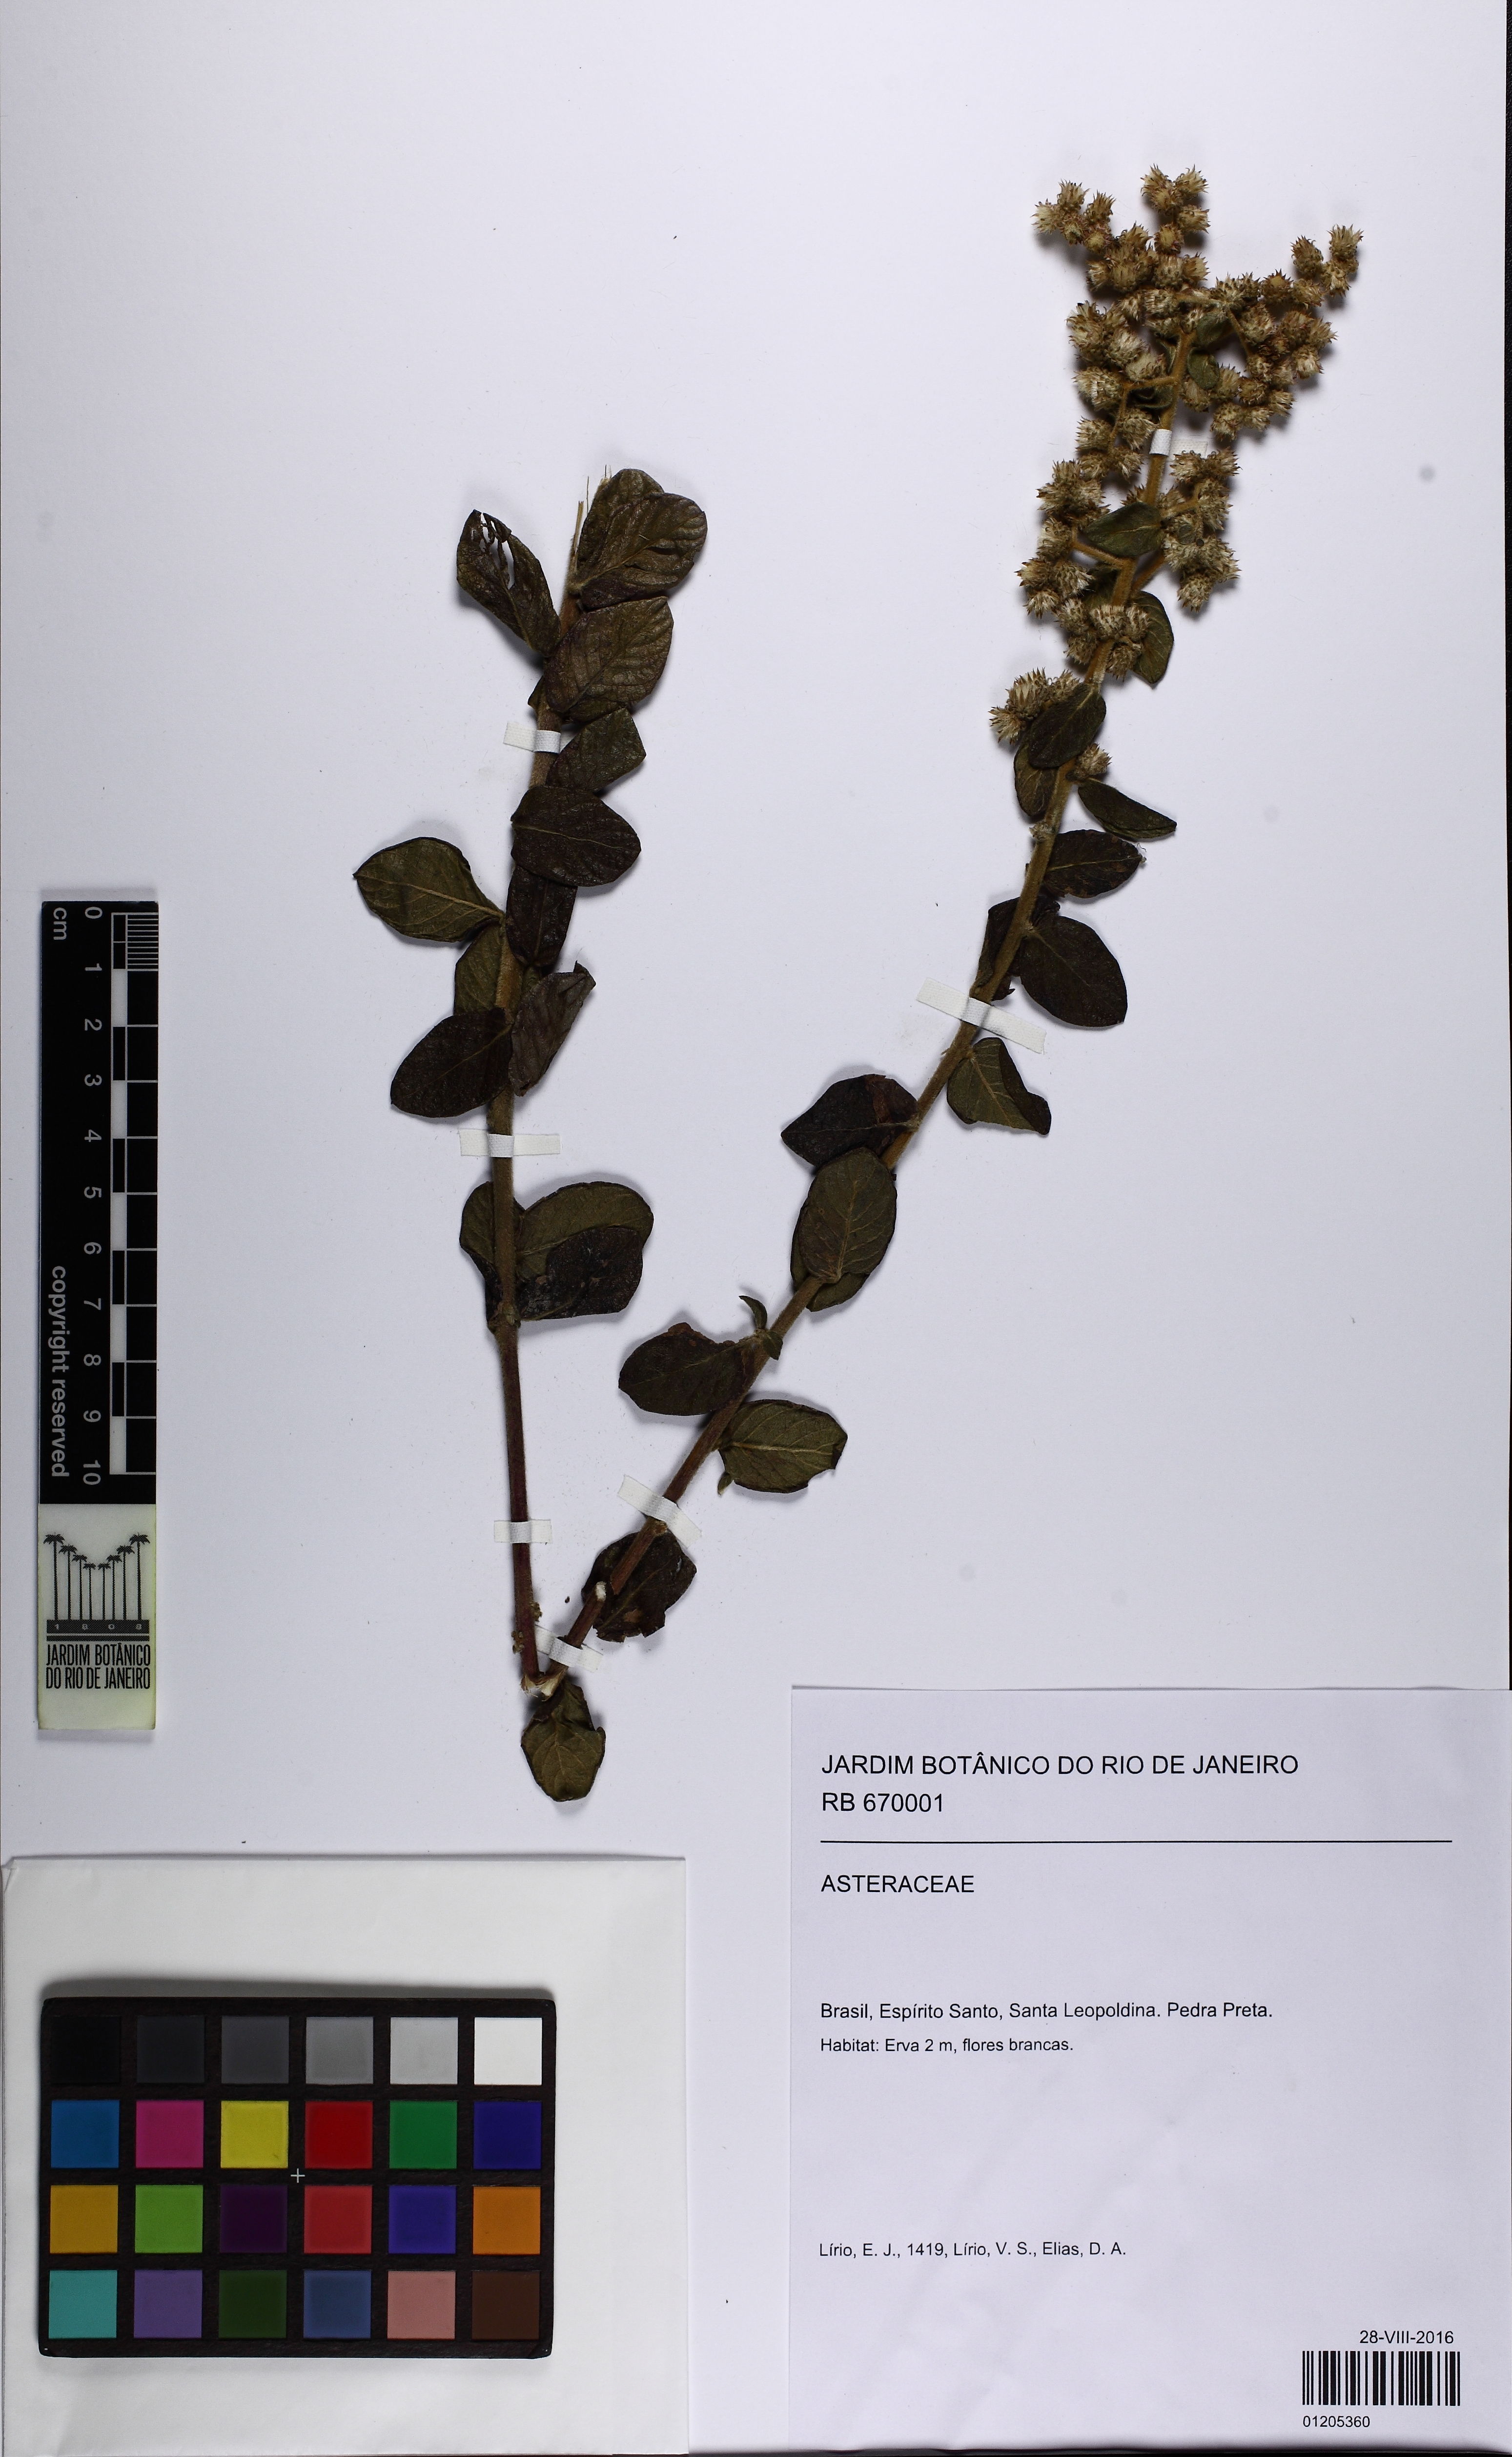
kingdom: Plantae
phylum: Tracheophyta
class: Magnoliopsida
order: Asterales
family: Asteraceae
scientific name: Asteraceae
